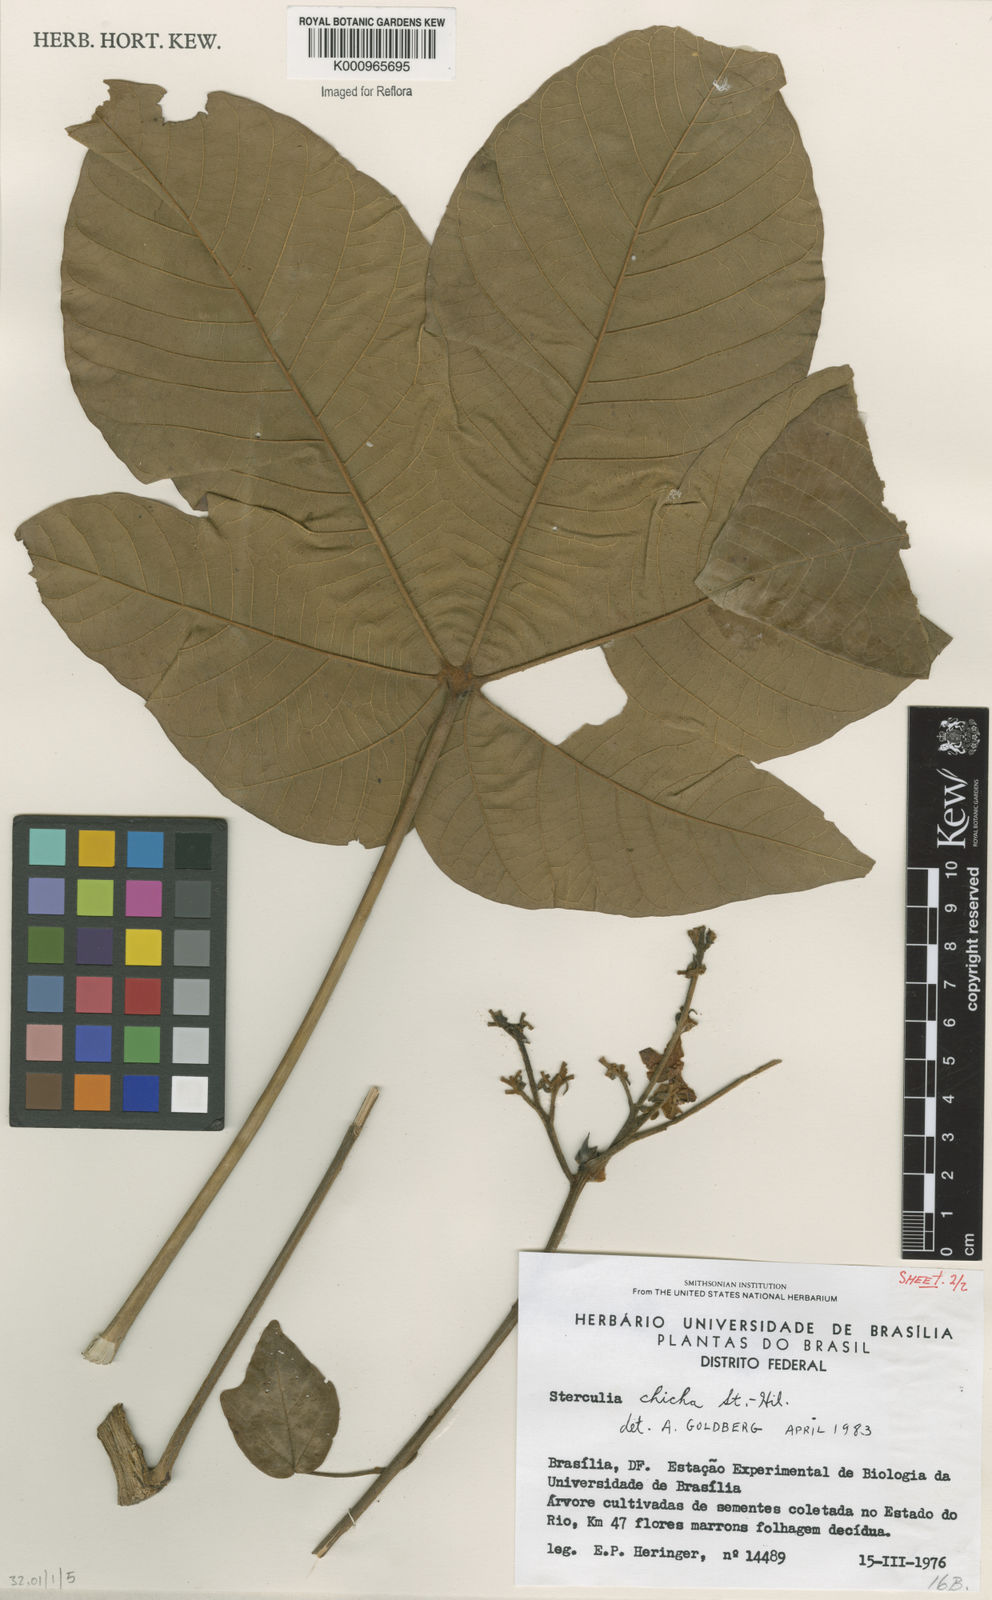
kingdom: Plantae
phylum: Tracheophyta
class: Magnoliopsida
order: Malvales
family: Malvaceae
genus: Sterculia
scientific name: Sterculia apetala
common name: Panama tree
